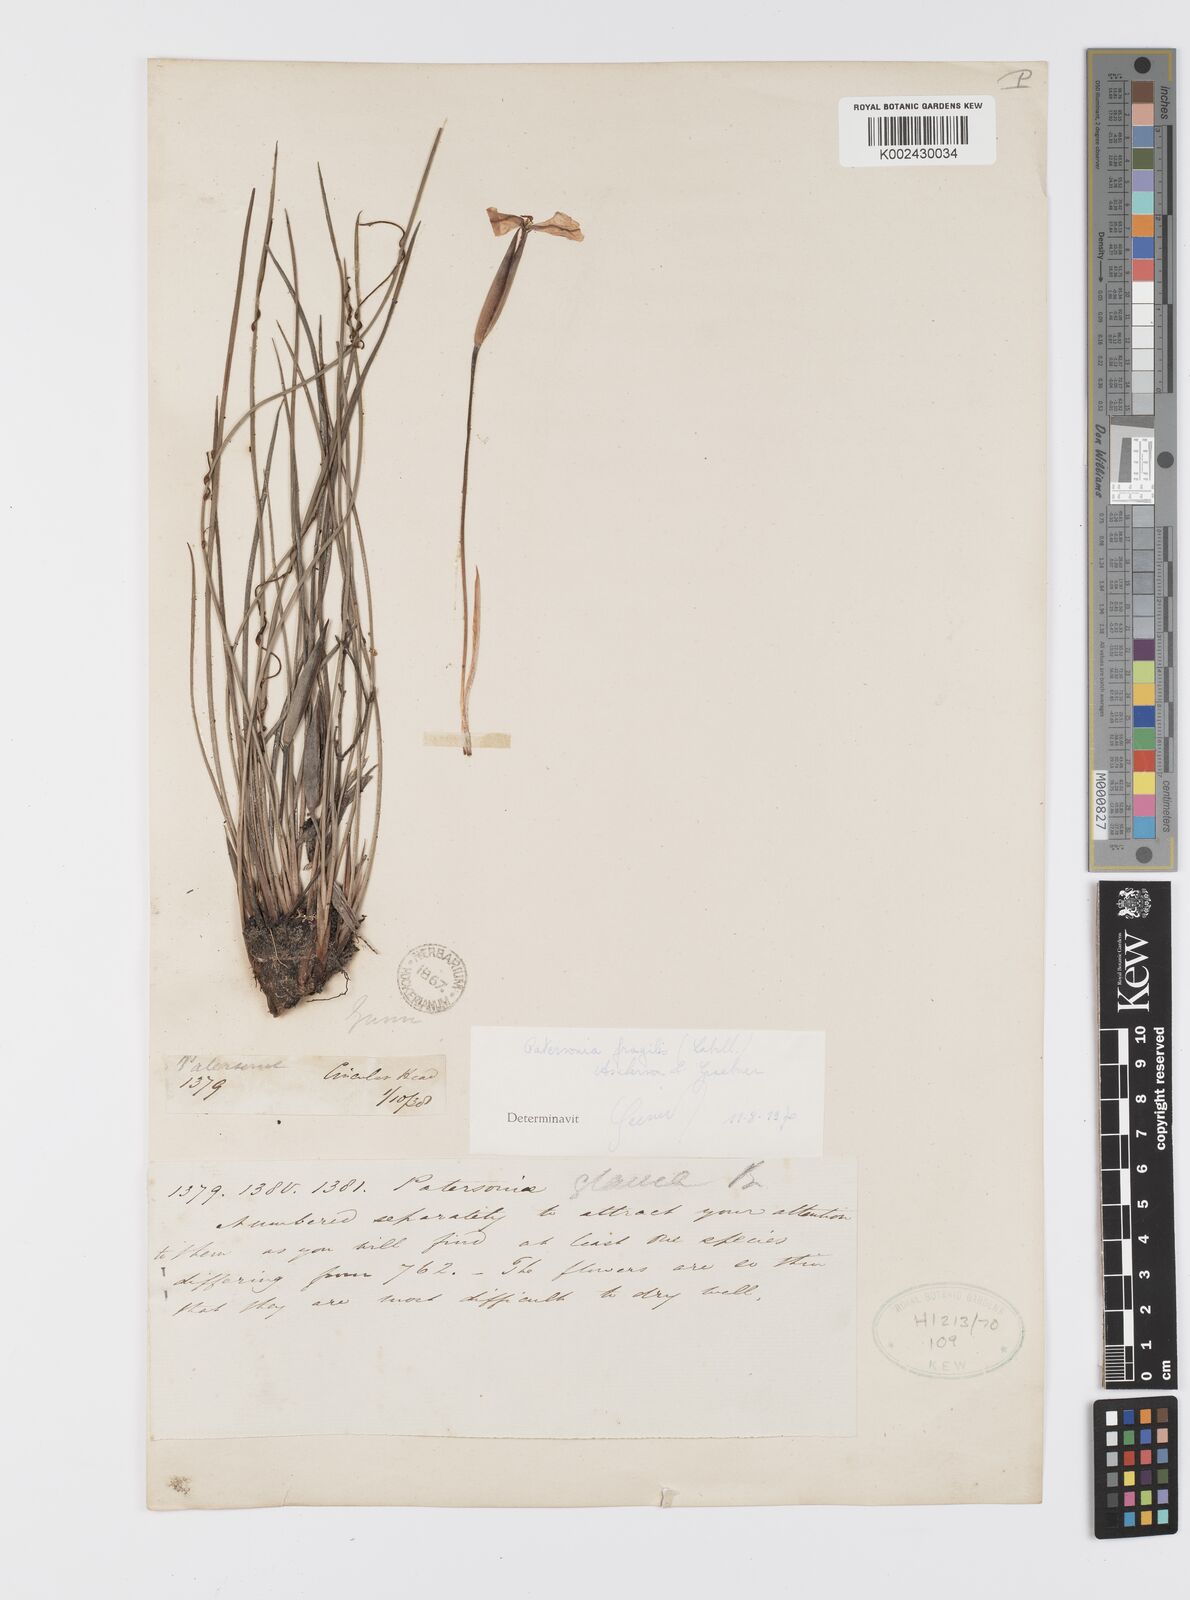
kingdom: Plantae
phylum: Tracheophyta
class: Liliopsida
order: Asparagales
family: Iridaceae
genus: Patersonia
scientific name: Patersonia fragilis
